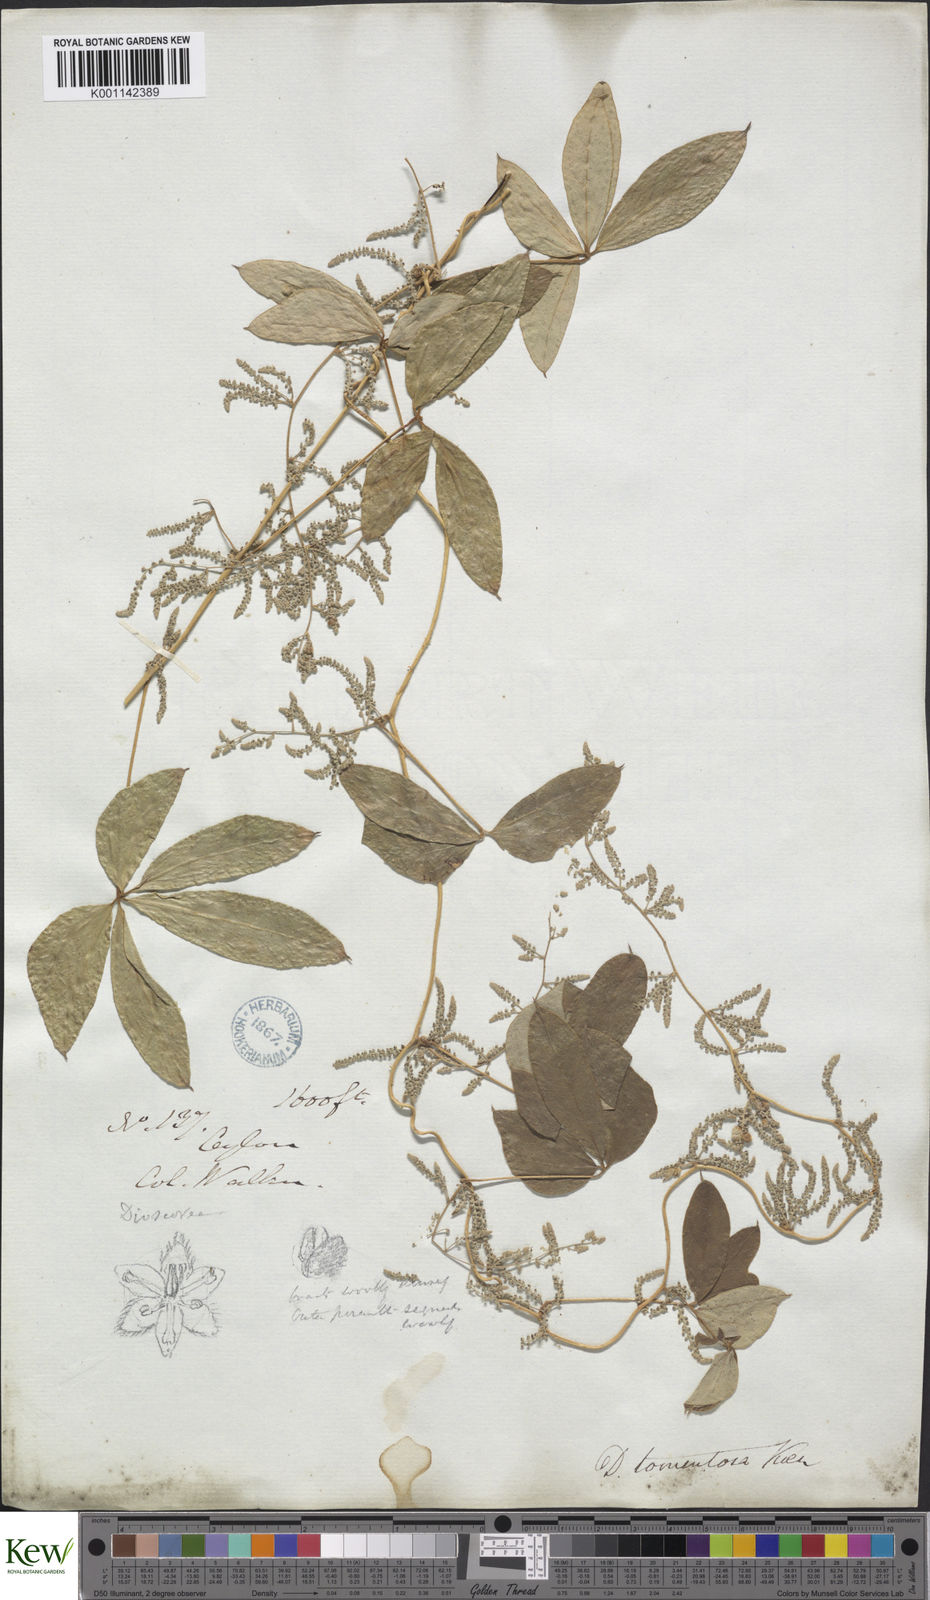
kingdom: Plantae
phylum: Tracheophyta
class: Liliopsida
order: Dioscoreales
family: Dioscoreaceae
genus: Dioscorea
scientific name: Dioscorea
